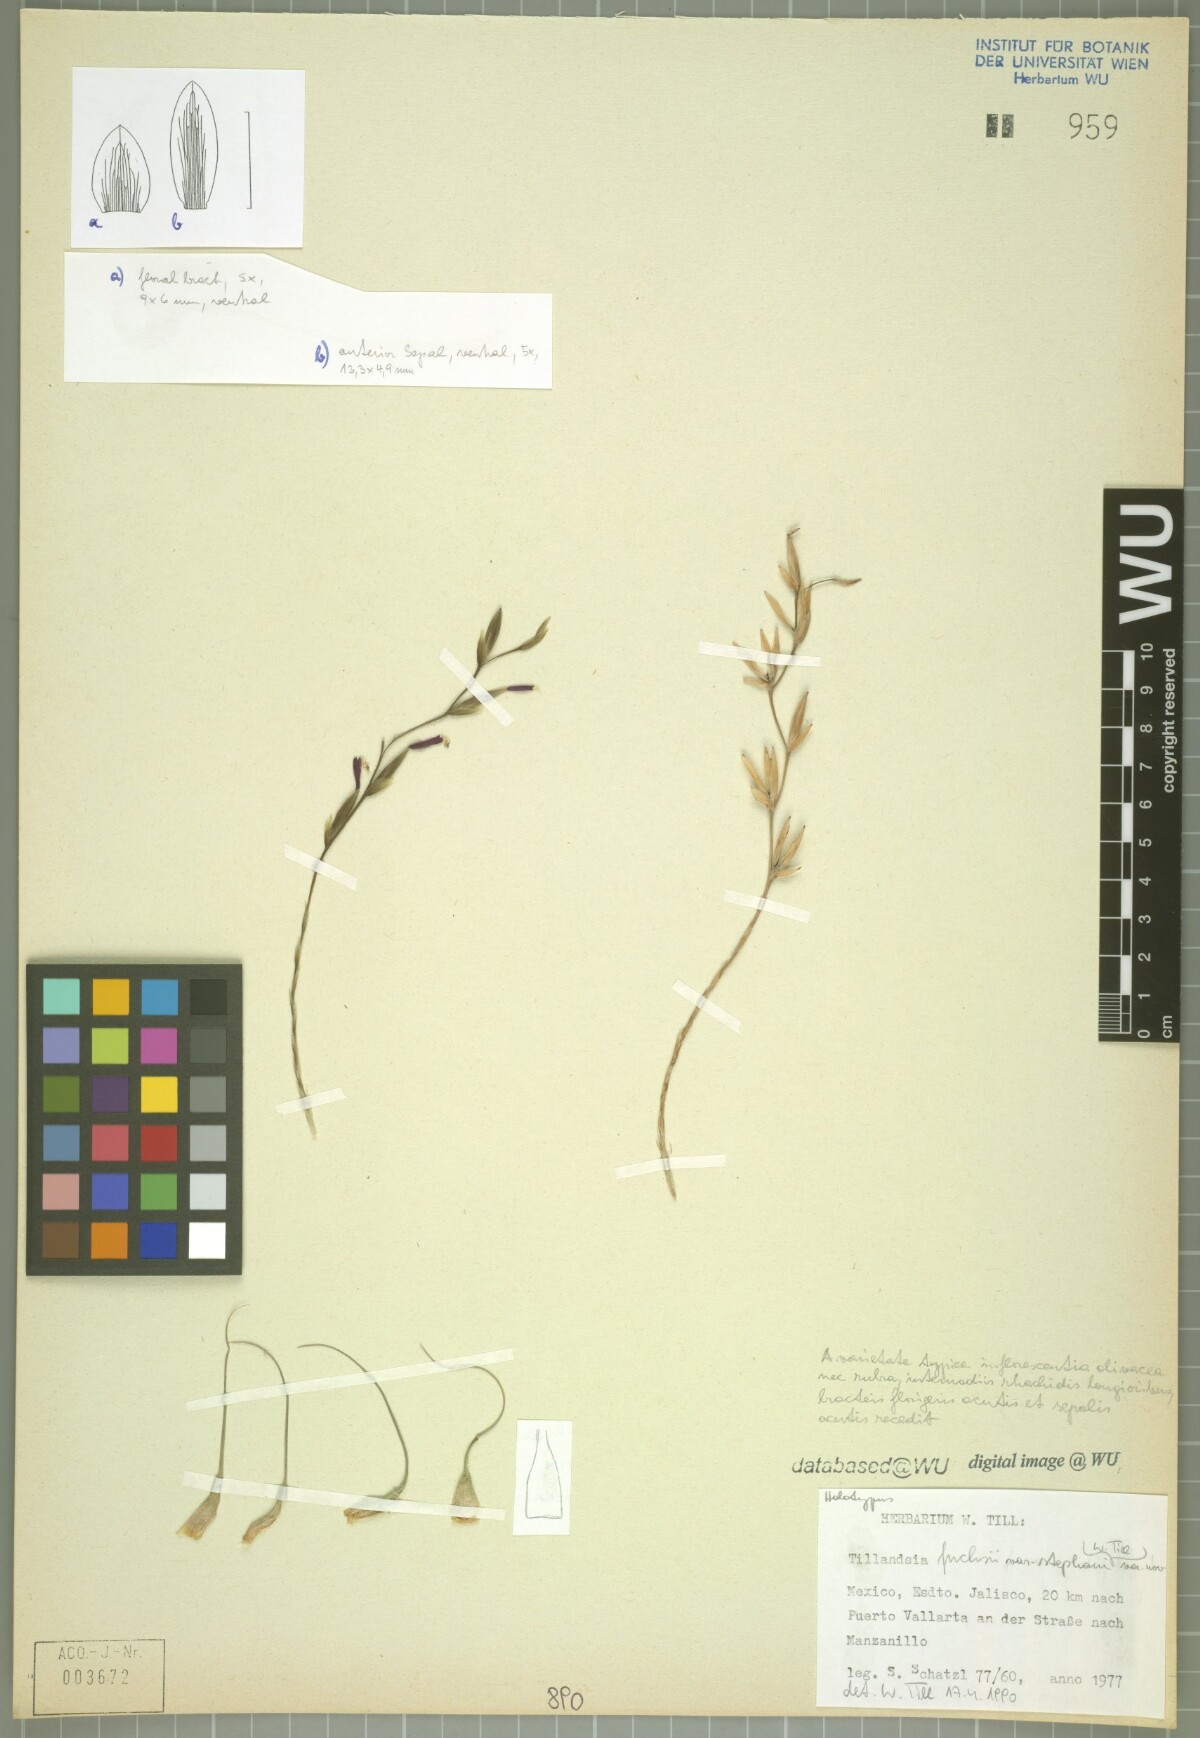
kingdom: Plantae
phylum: Tracheophyta
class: Liliopsida
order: Poales
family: Bromeliaceae
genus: Tillandsia
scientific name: Tillandsia fuchsii
